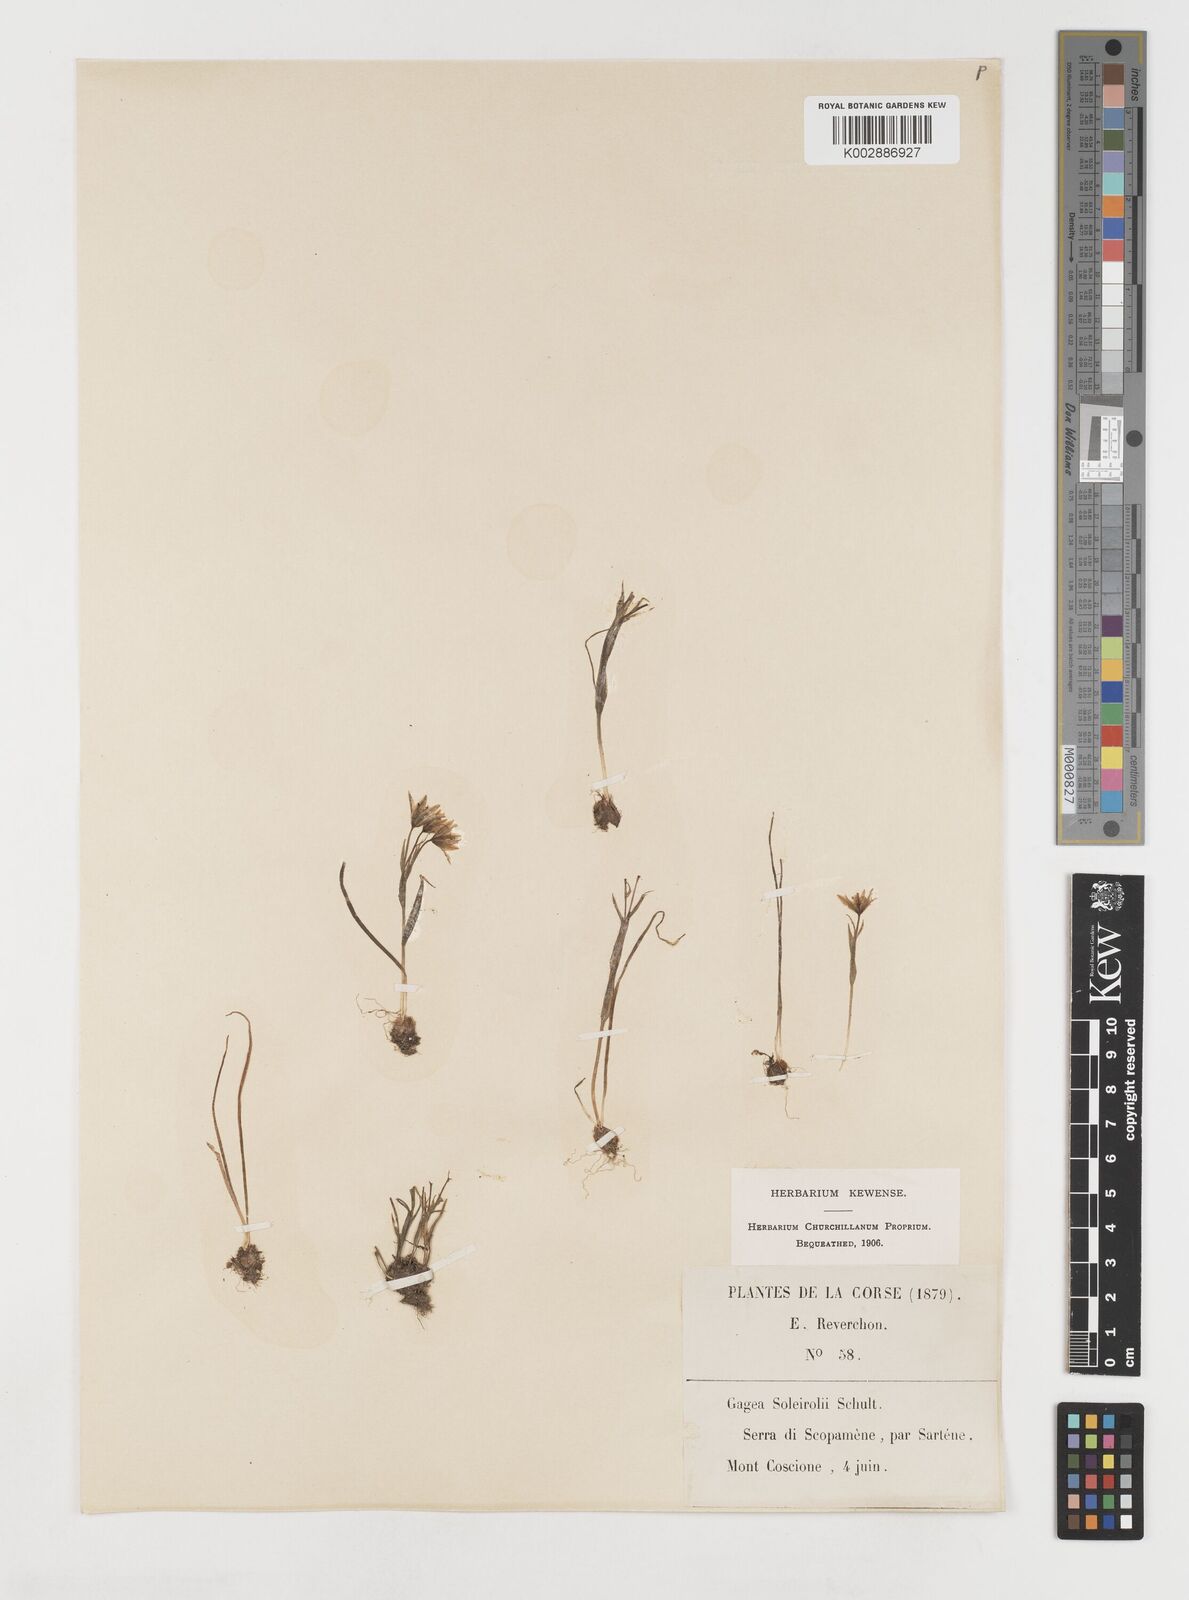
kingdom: Plantae
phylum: Tracheophyta
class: Liliopsida
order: Liliales
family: Liliaceae
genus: Gagea
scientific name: Gagea soleirolii
